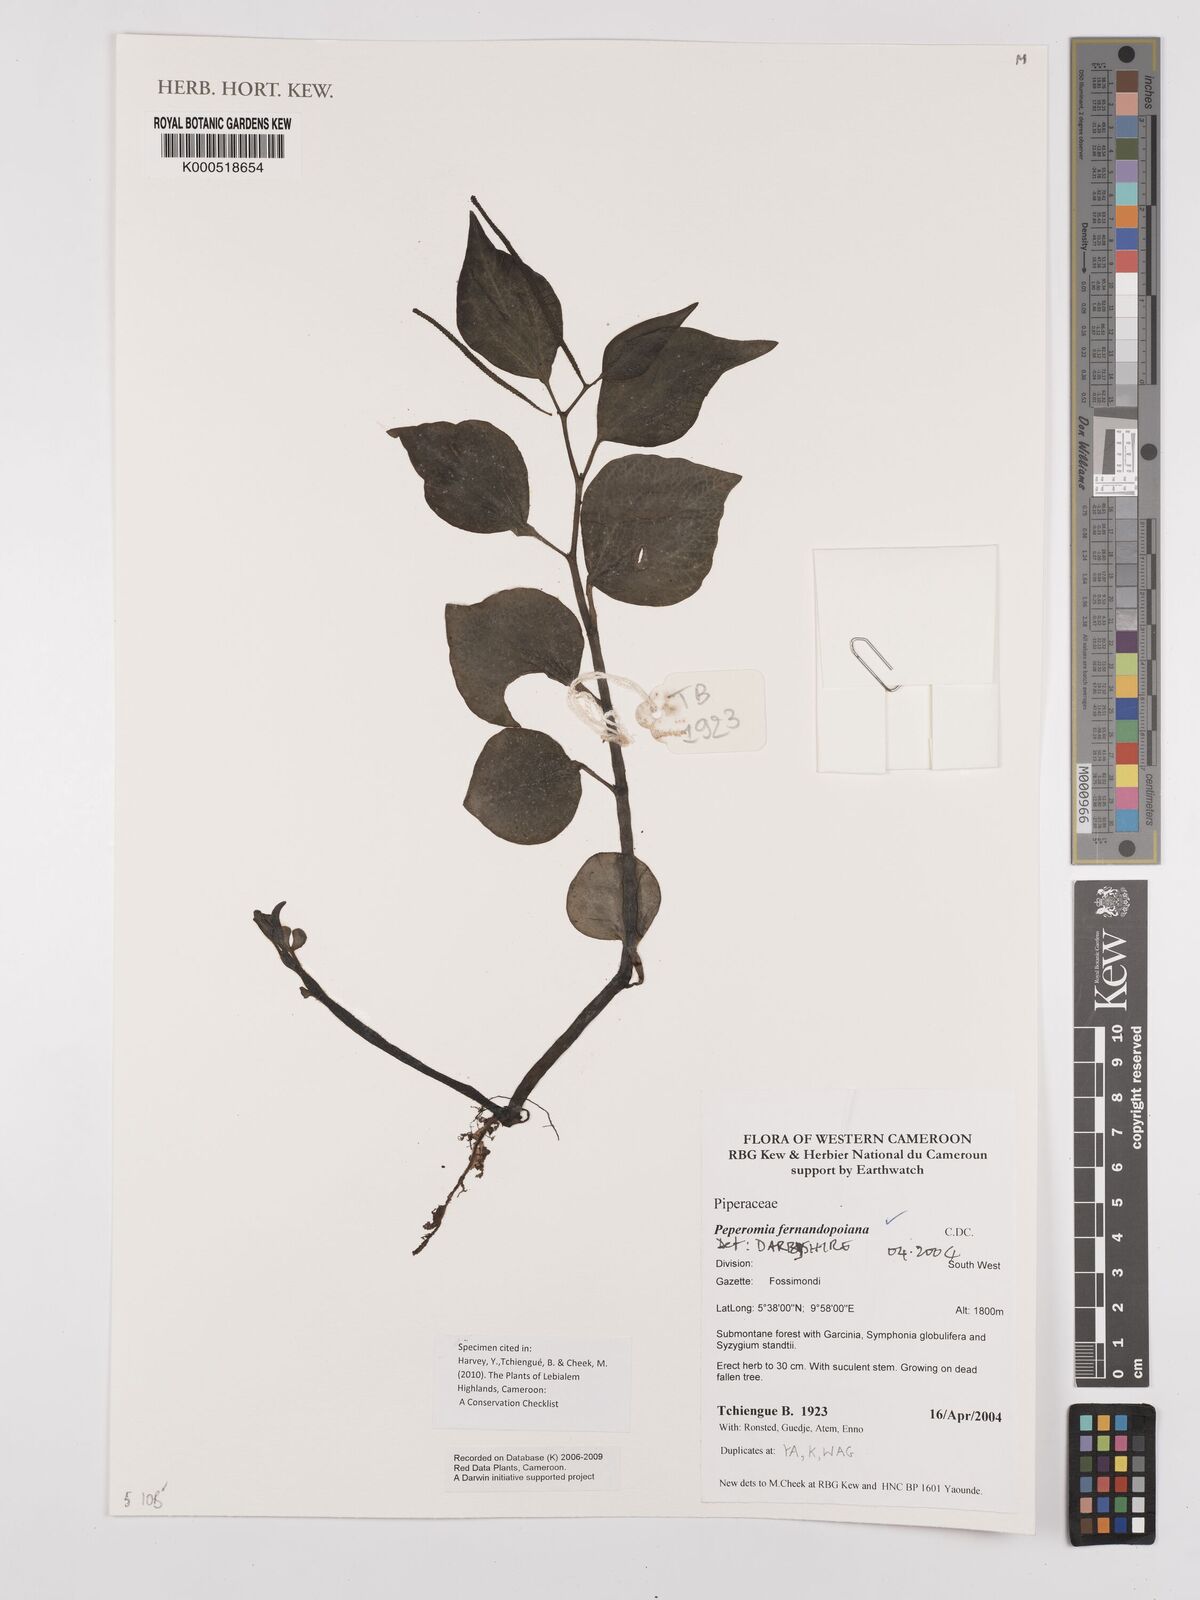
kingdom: Plantae
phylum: Tracheophyta
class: Magnoliopsida
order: Piperales
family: Piperaceae
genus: Peperomia
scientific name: Peperomia fernandopoiana
